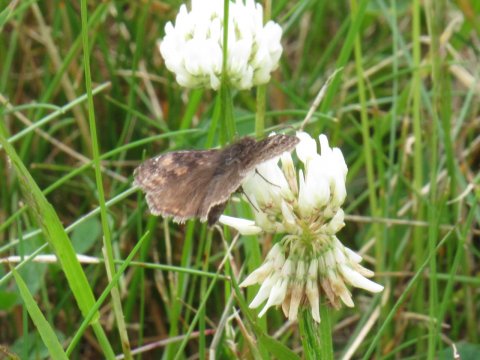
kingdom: Animalia
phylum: Arthropoda
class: Insecta
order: Lepidoptera
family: Hesperiidae
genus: Gesta
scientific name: Gesta
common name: Wild Indigo Duskywing
